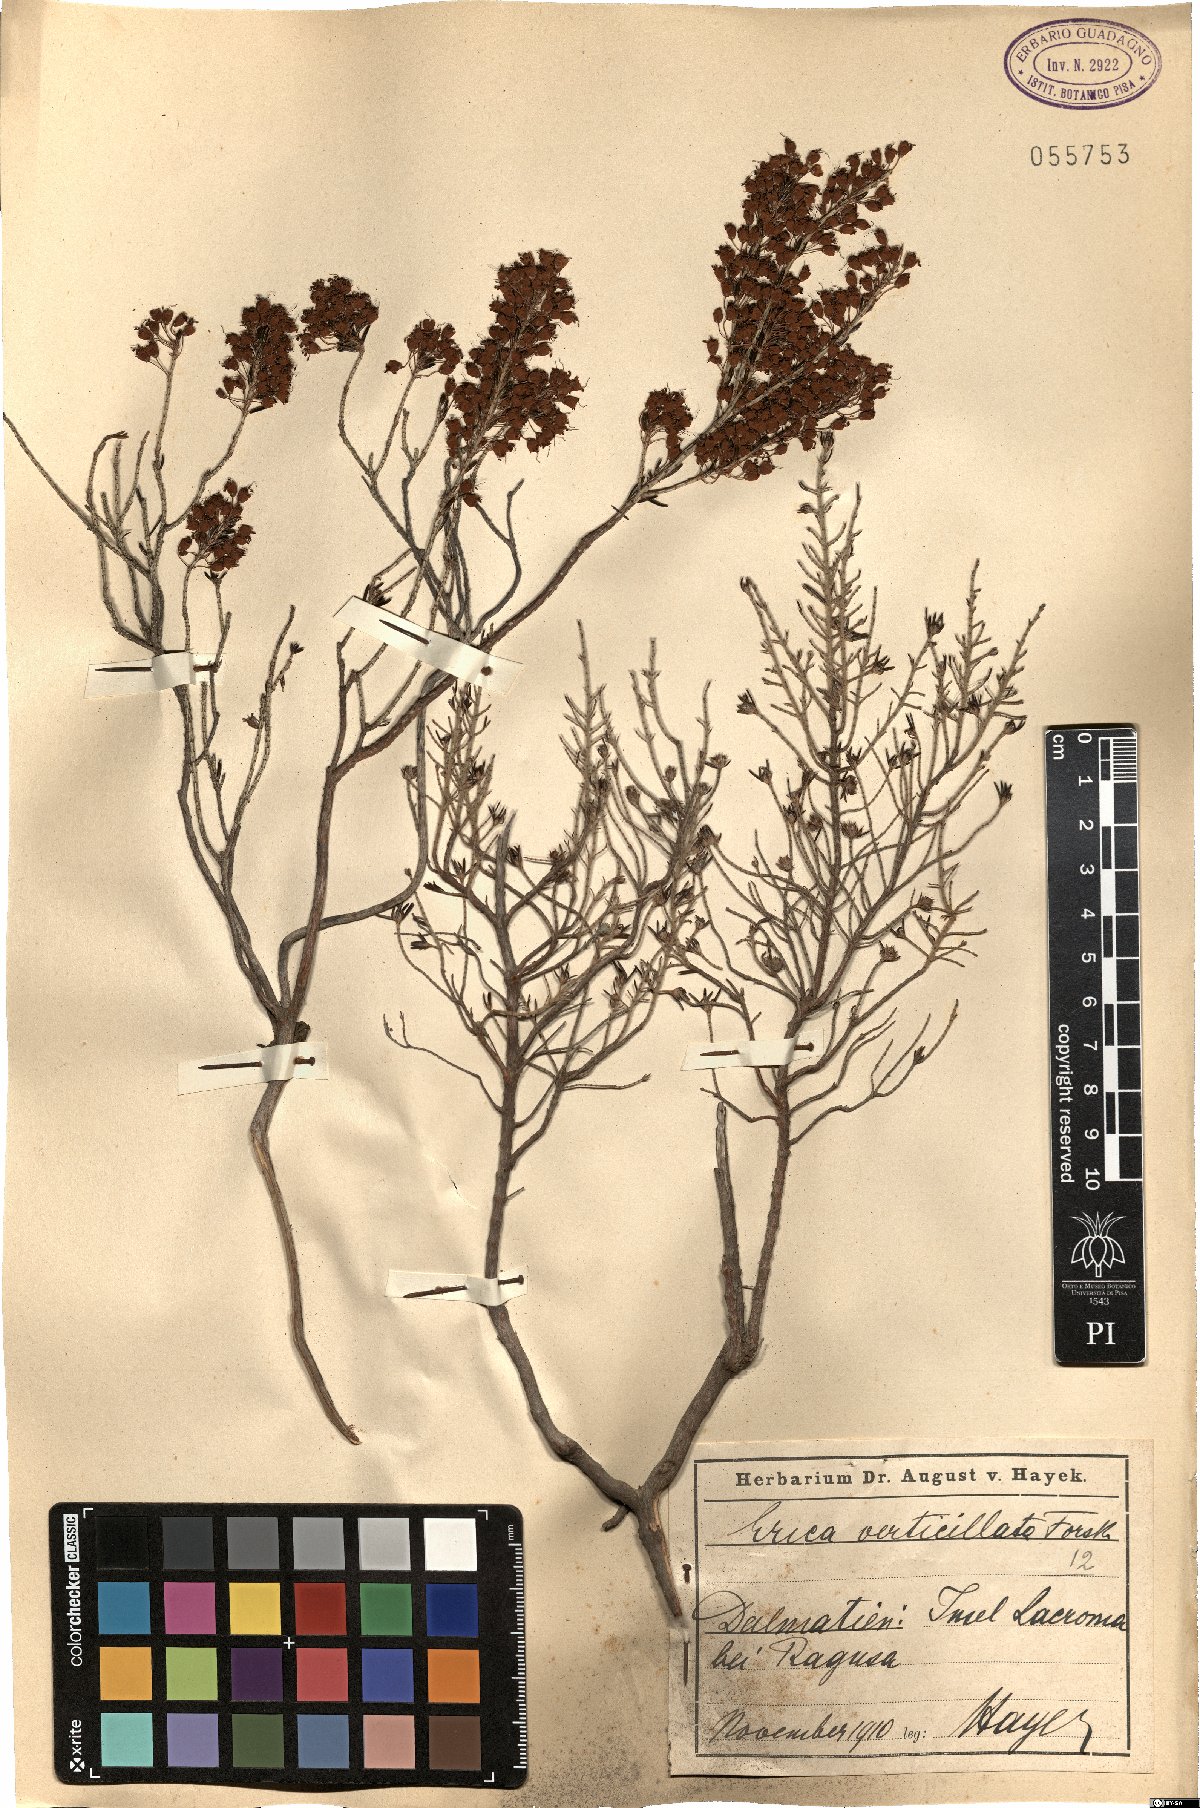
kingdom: Plantae
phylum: Tracheophyta
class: Magnoliopsida
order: Ericales
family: Ericaceae
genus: Erica
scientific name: Erica verticillata
